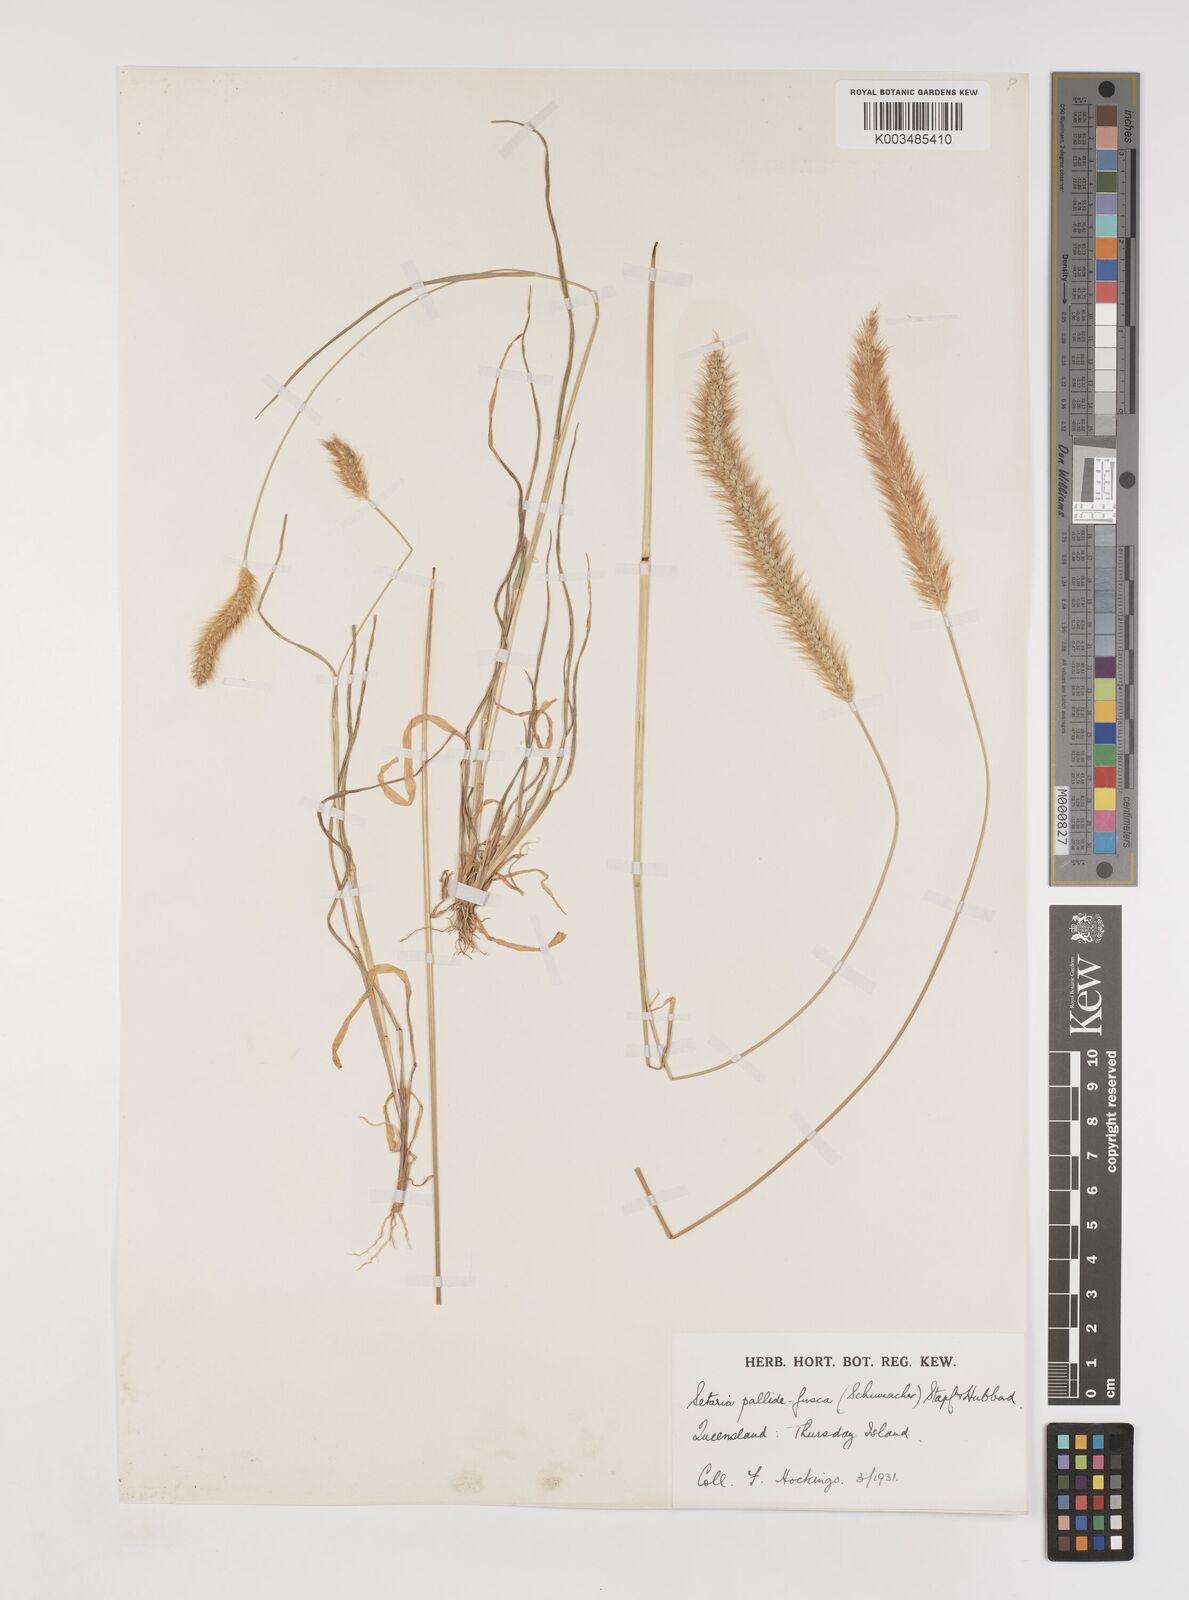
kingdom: Plantae
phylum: Tracheophyta
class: Liliopsida
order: Poales
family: Poaceae
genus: Setaria
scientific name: Setaria pumila
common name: Yellow bristle-grass
